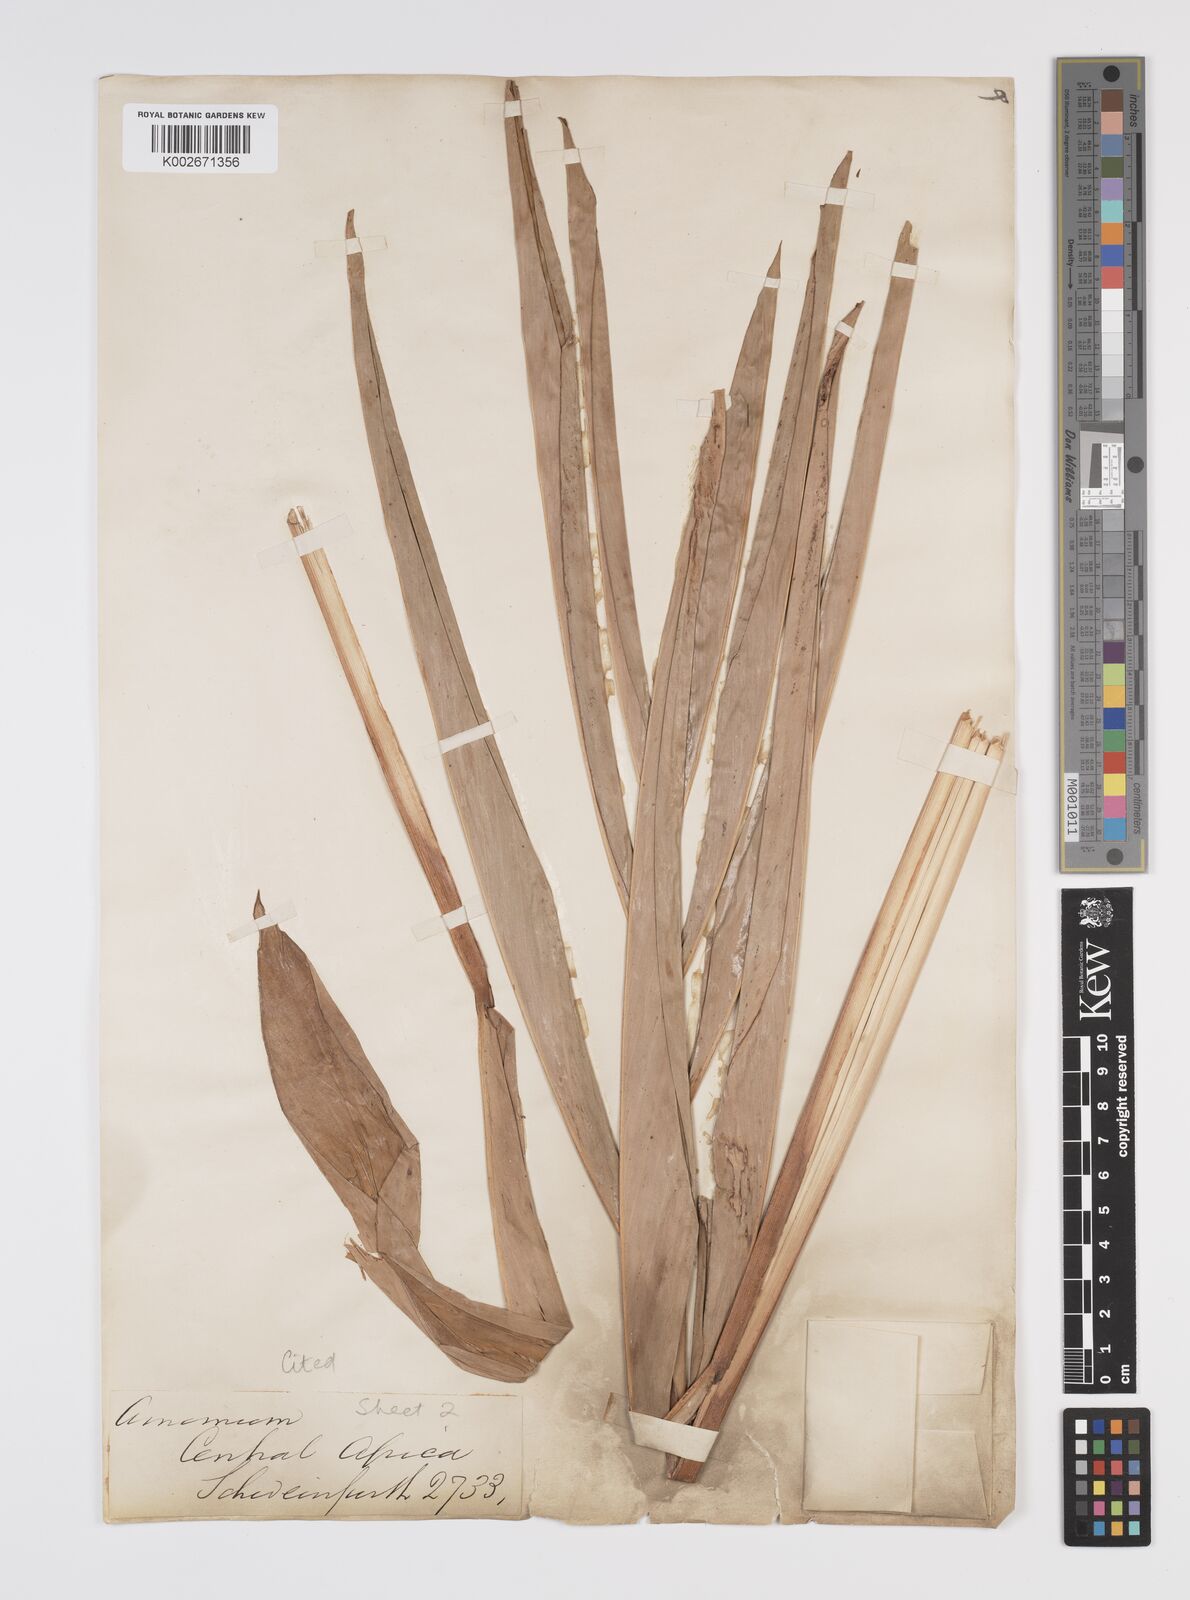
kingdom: Plantae
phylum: Tracheophyta
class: Liliopsida
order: Zingiberales
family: Zingiberaceae
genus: Aframomum
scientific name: Aframomum alboviolaceum
